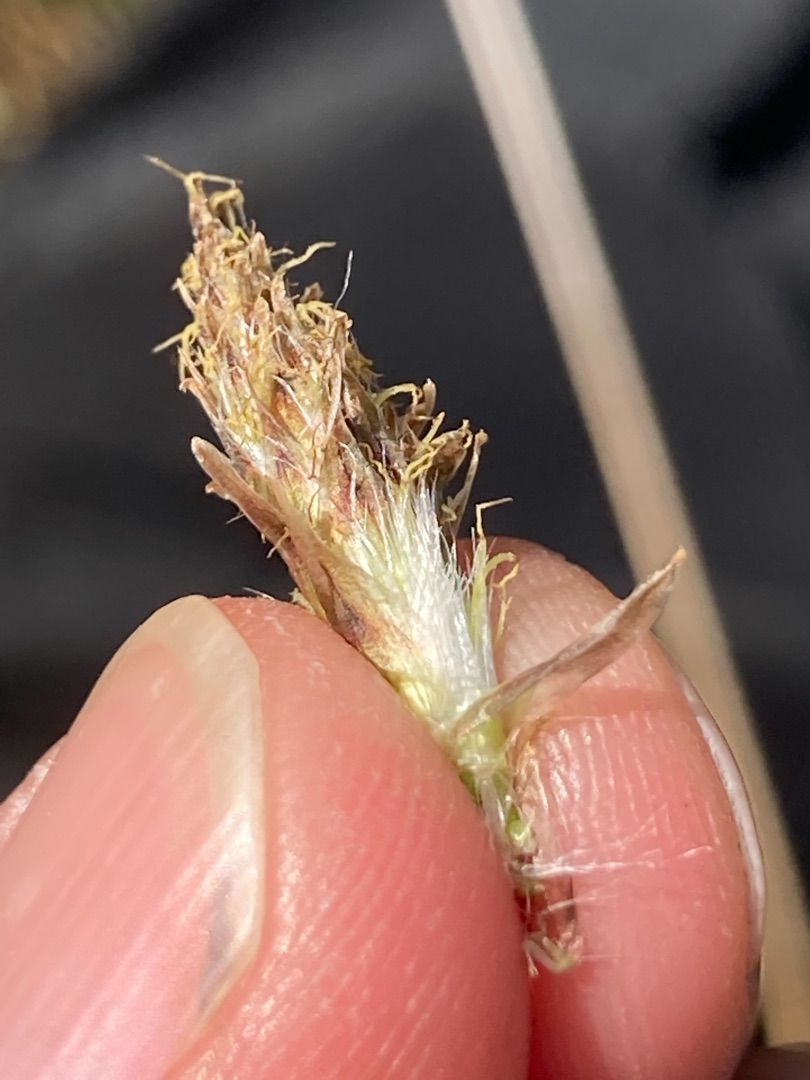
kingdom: Plantae
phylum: Tracheophyta
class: Liliopsida
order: Poales
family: Cyperaceae
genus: Eriophorum
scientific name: Eriophorum angustifolium
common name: Smalbladet kæruld
